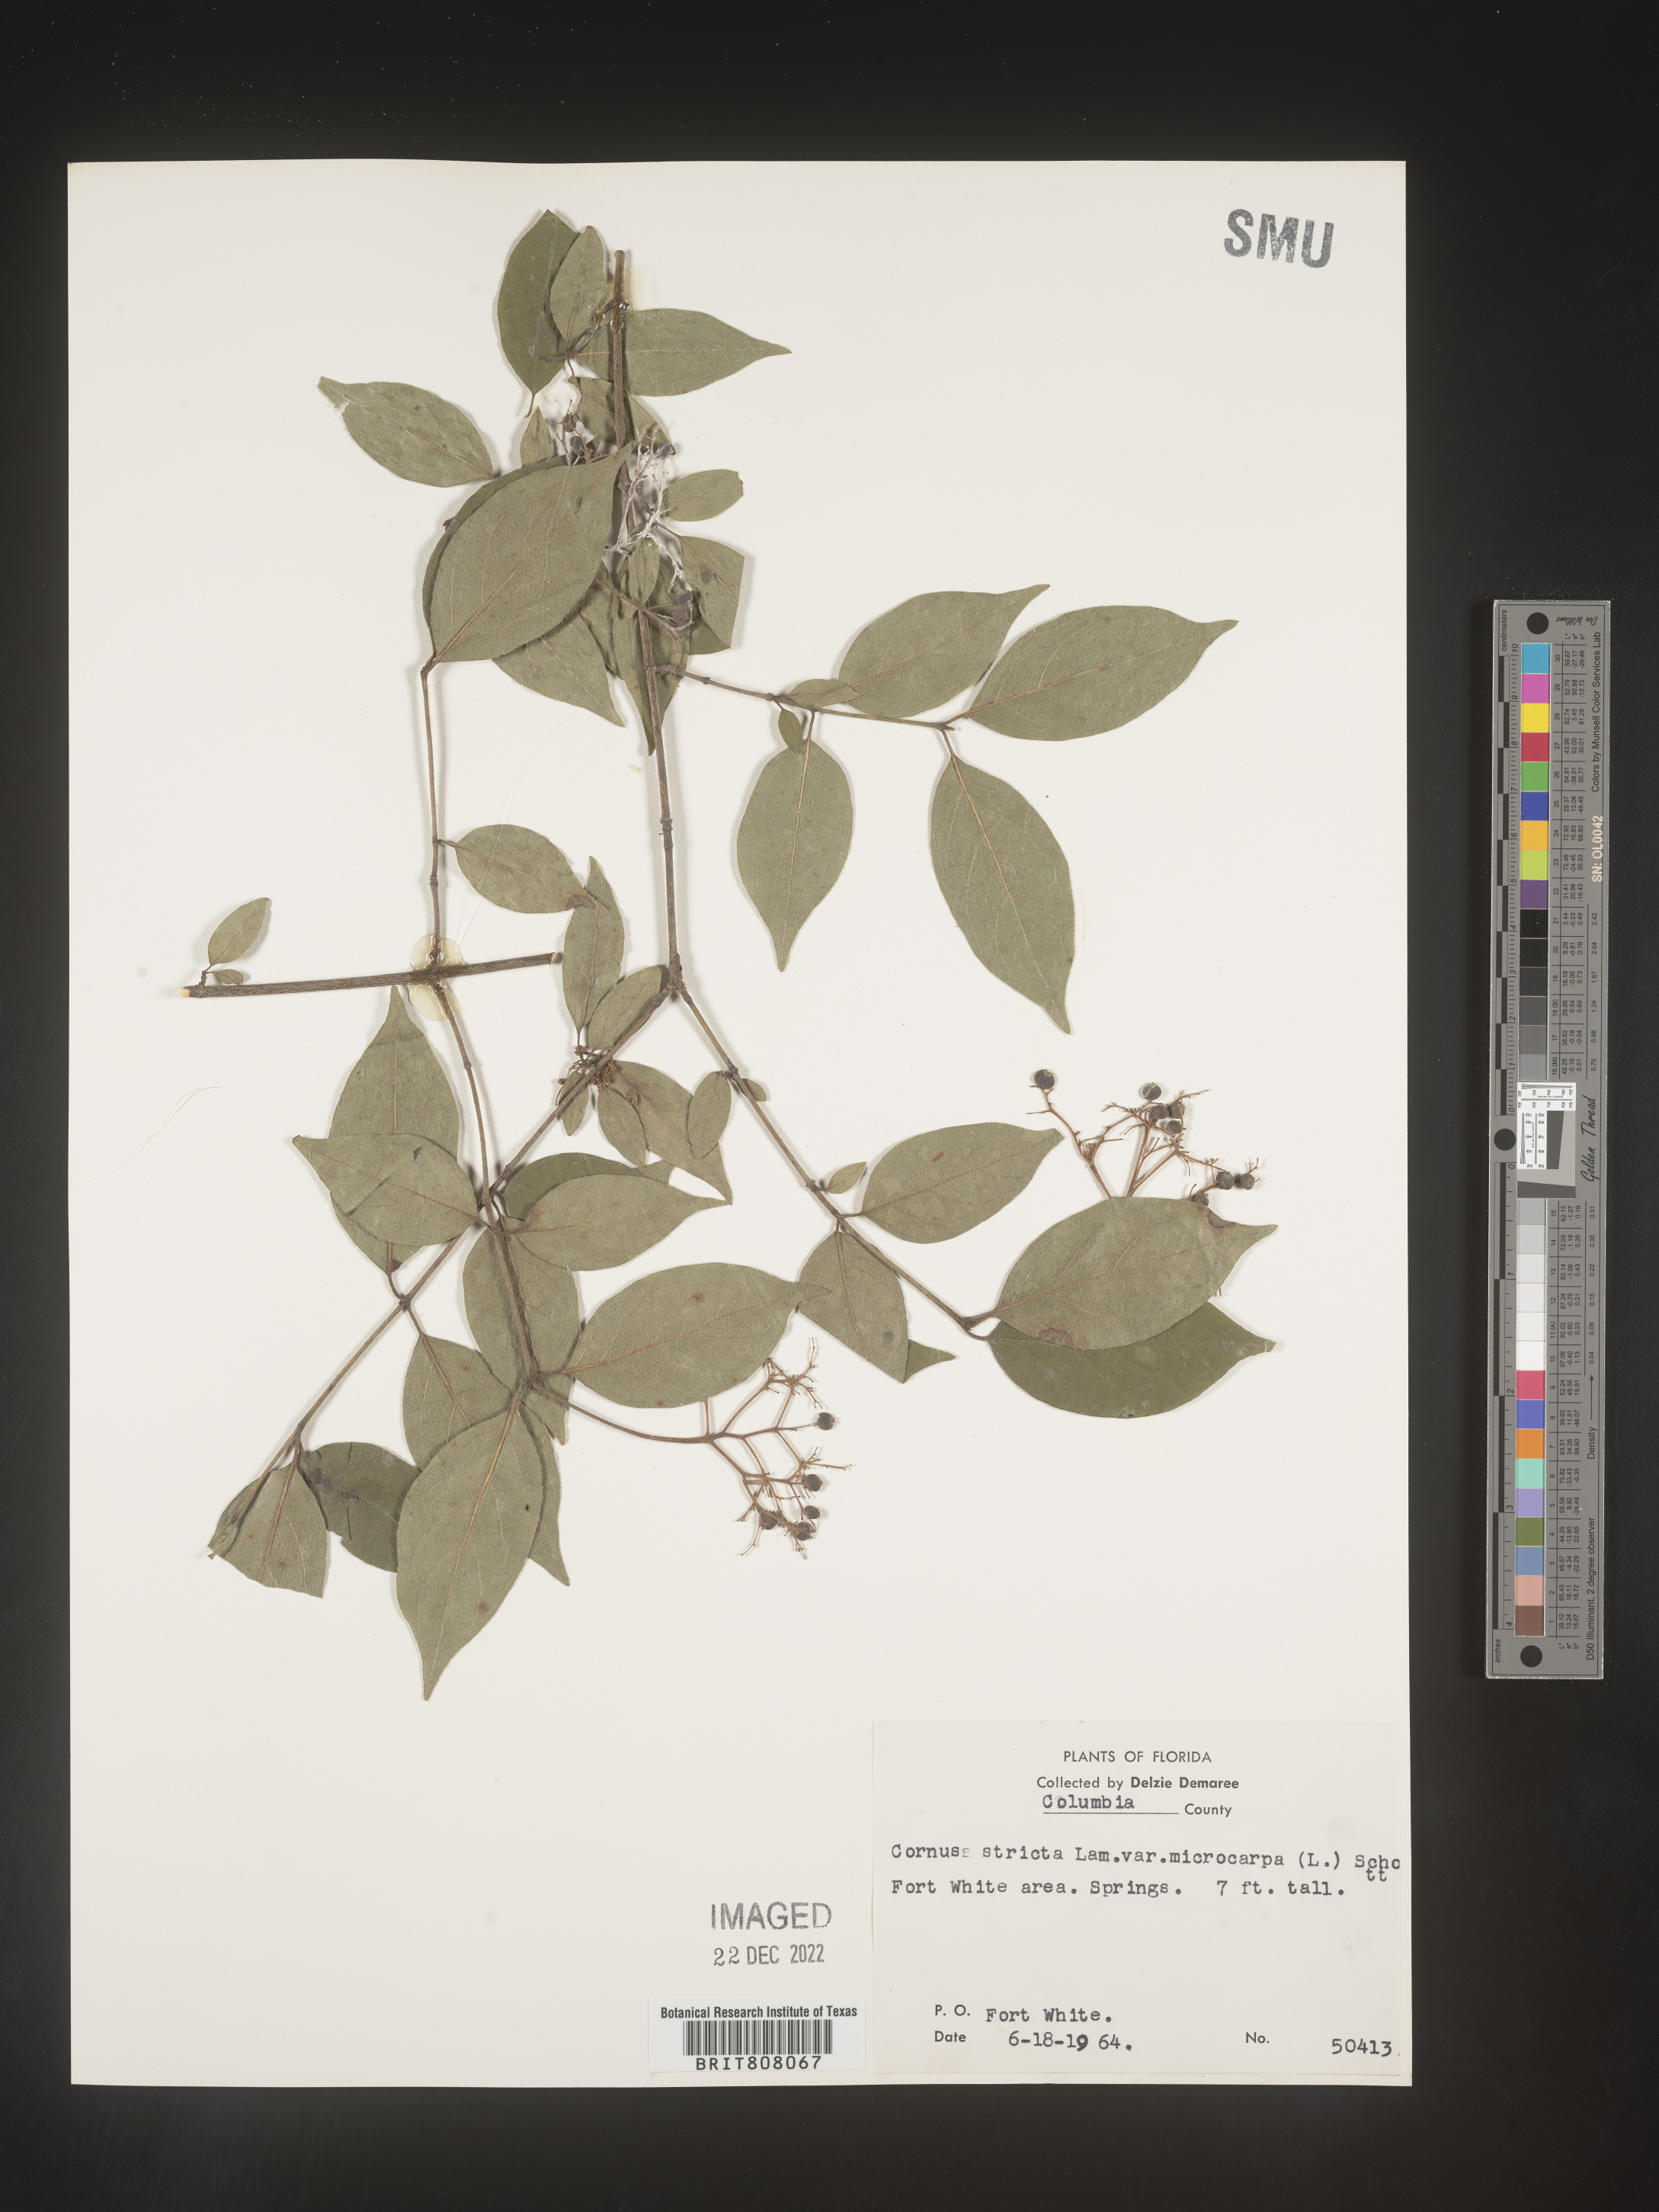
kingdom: Plantae
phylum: Tracheophyta
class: Magnoliopsida
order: Cornales
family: Cornaceae
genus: Cornus
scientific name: Cornus foemina
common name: Swamp dogwood
